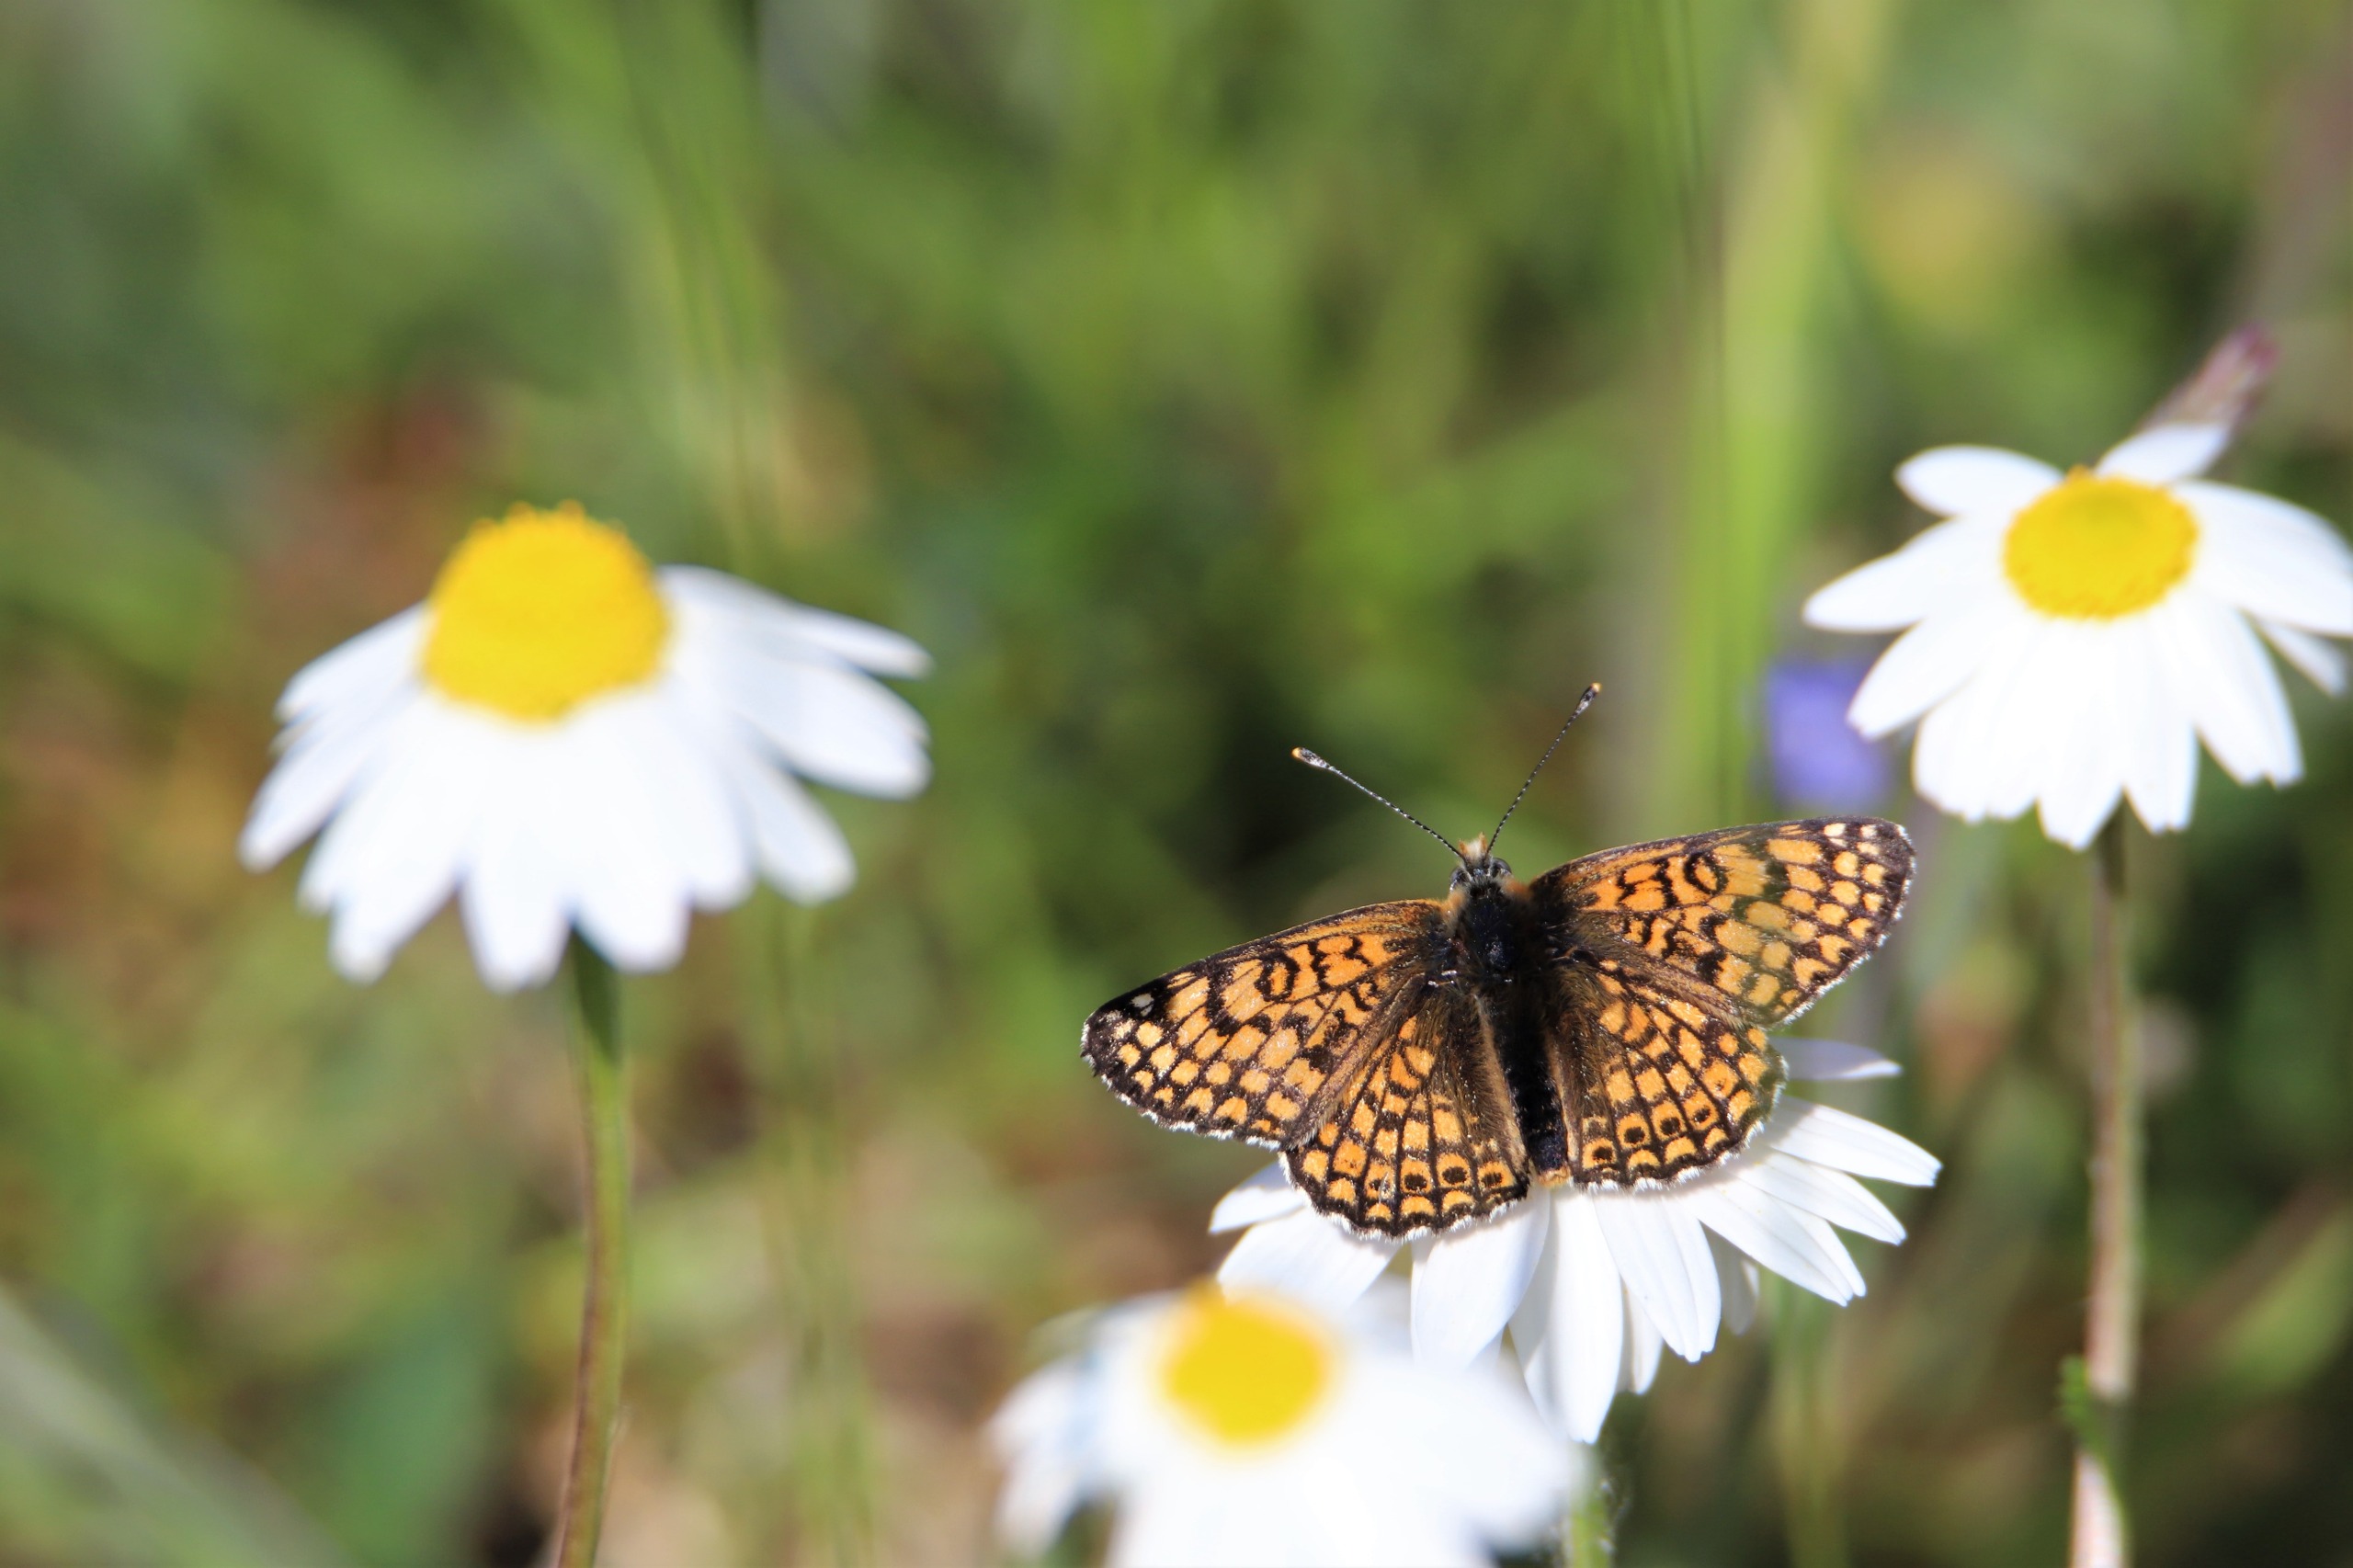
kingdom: Animalia
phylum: Arthropoda
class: Insecta
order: Lepidoptera
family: Nymphalidae
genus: Melitaea
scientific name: Melitaea cinxia
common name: Okkergul pletvinge
